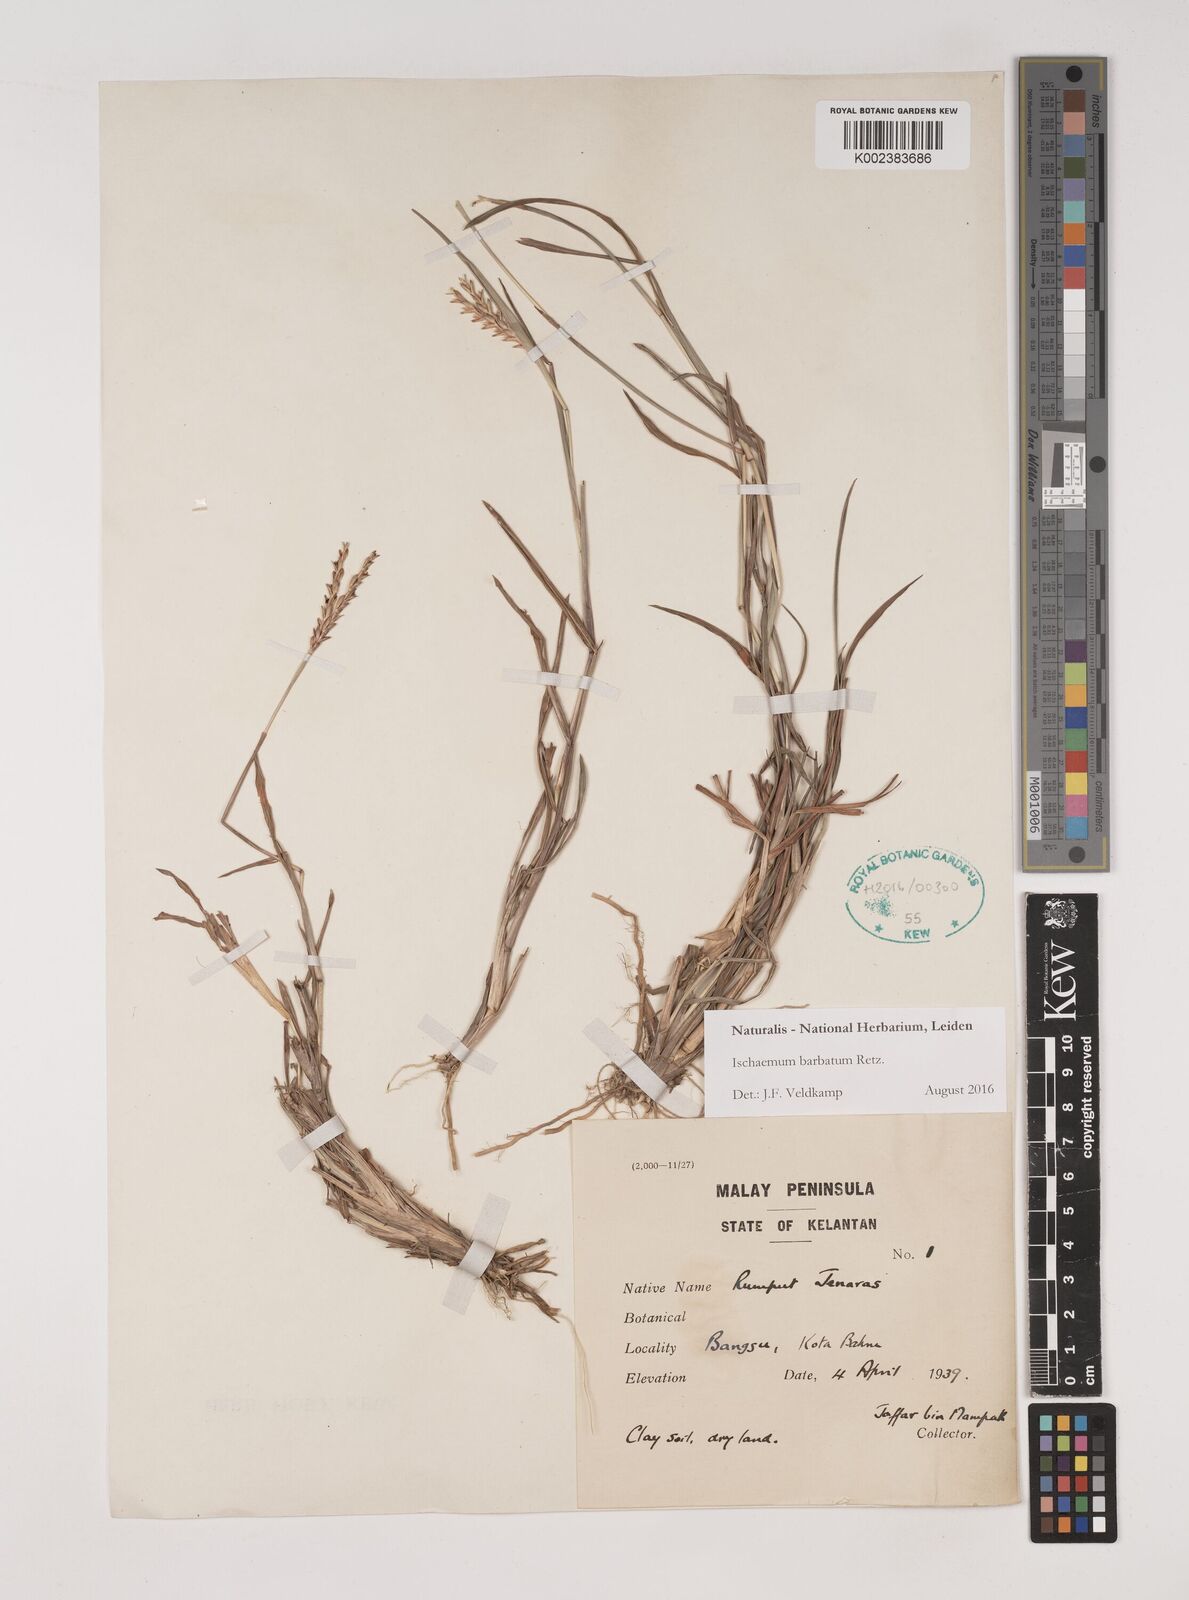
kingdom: Plantae
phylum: Tracheophyta
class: Liliopsida
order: Poales
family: Poaceae
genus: Ischaemum
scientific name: Ischaemum barbatum
